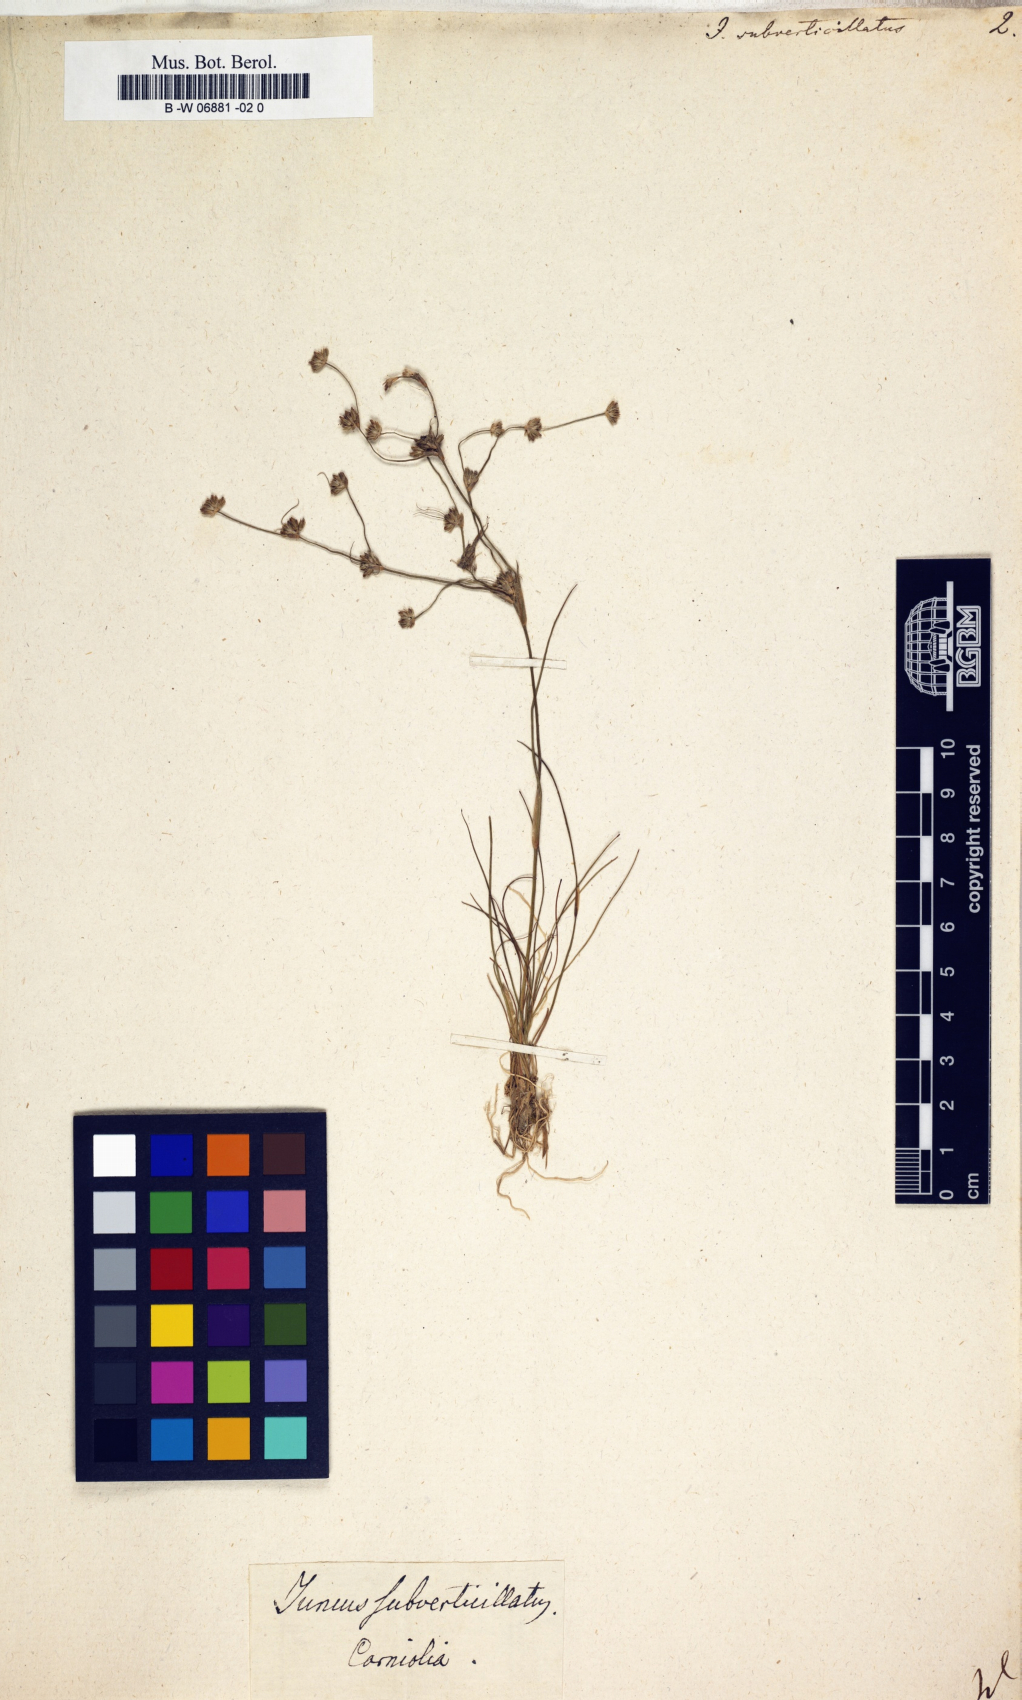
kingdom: Plantae
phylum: Tracheophyta
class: Liliopsida
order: Poales
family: Juncaceae
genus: Juncus
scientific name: Juncus subverticillatus
